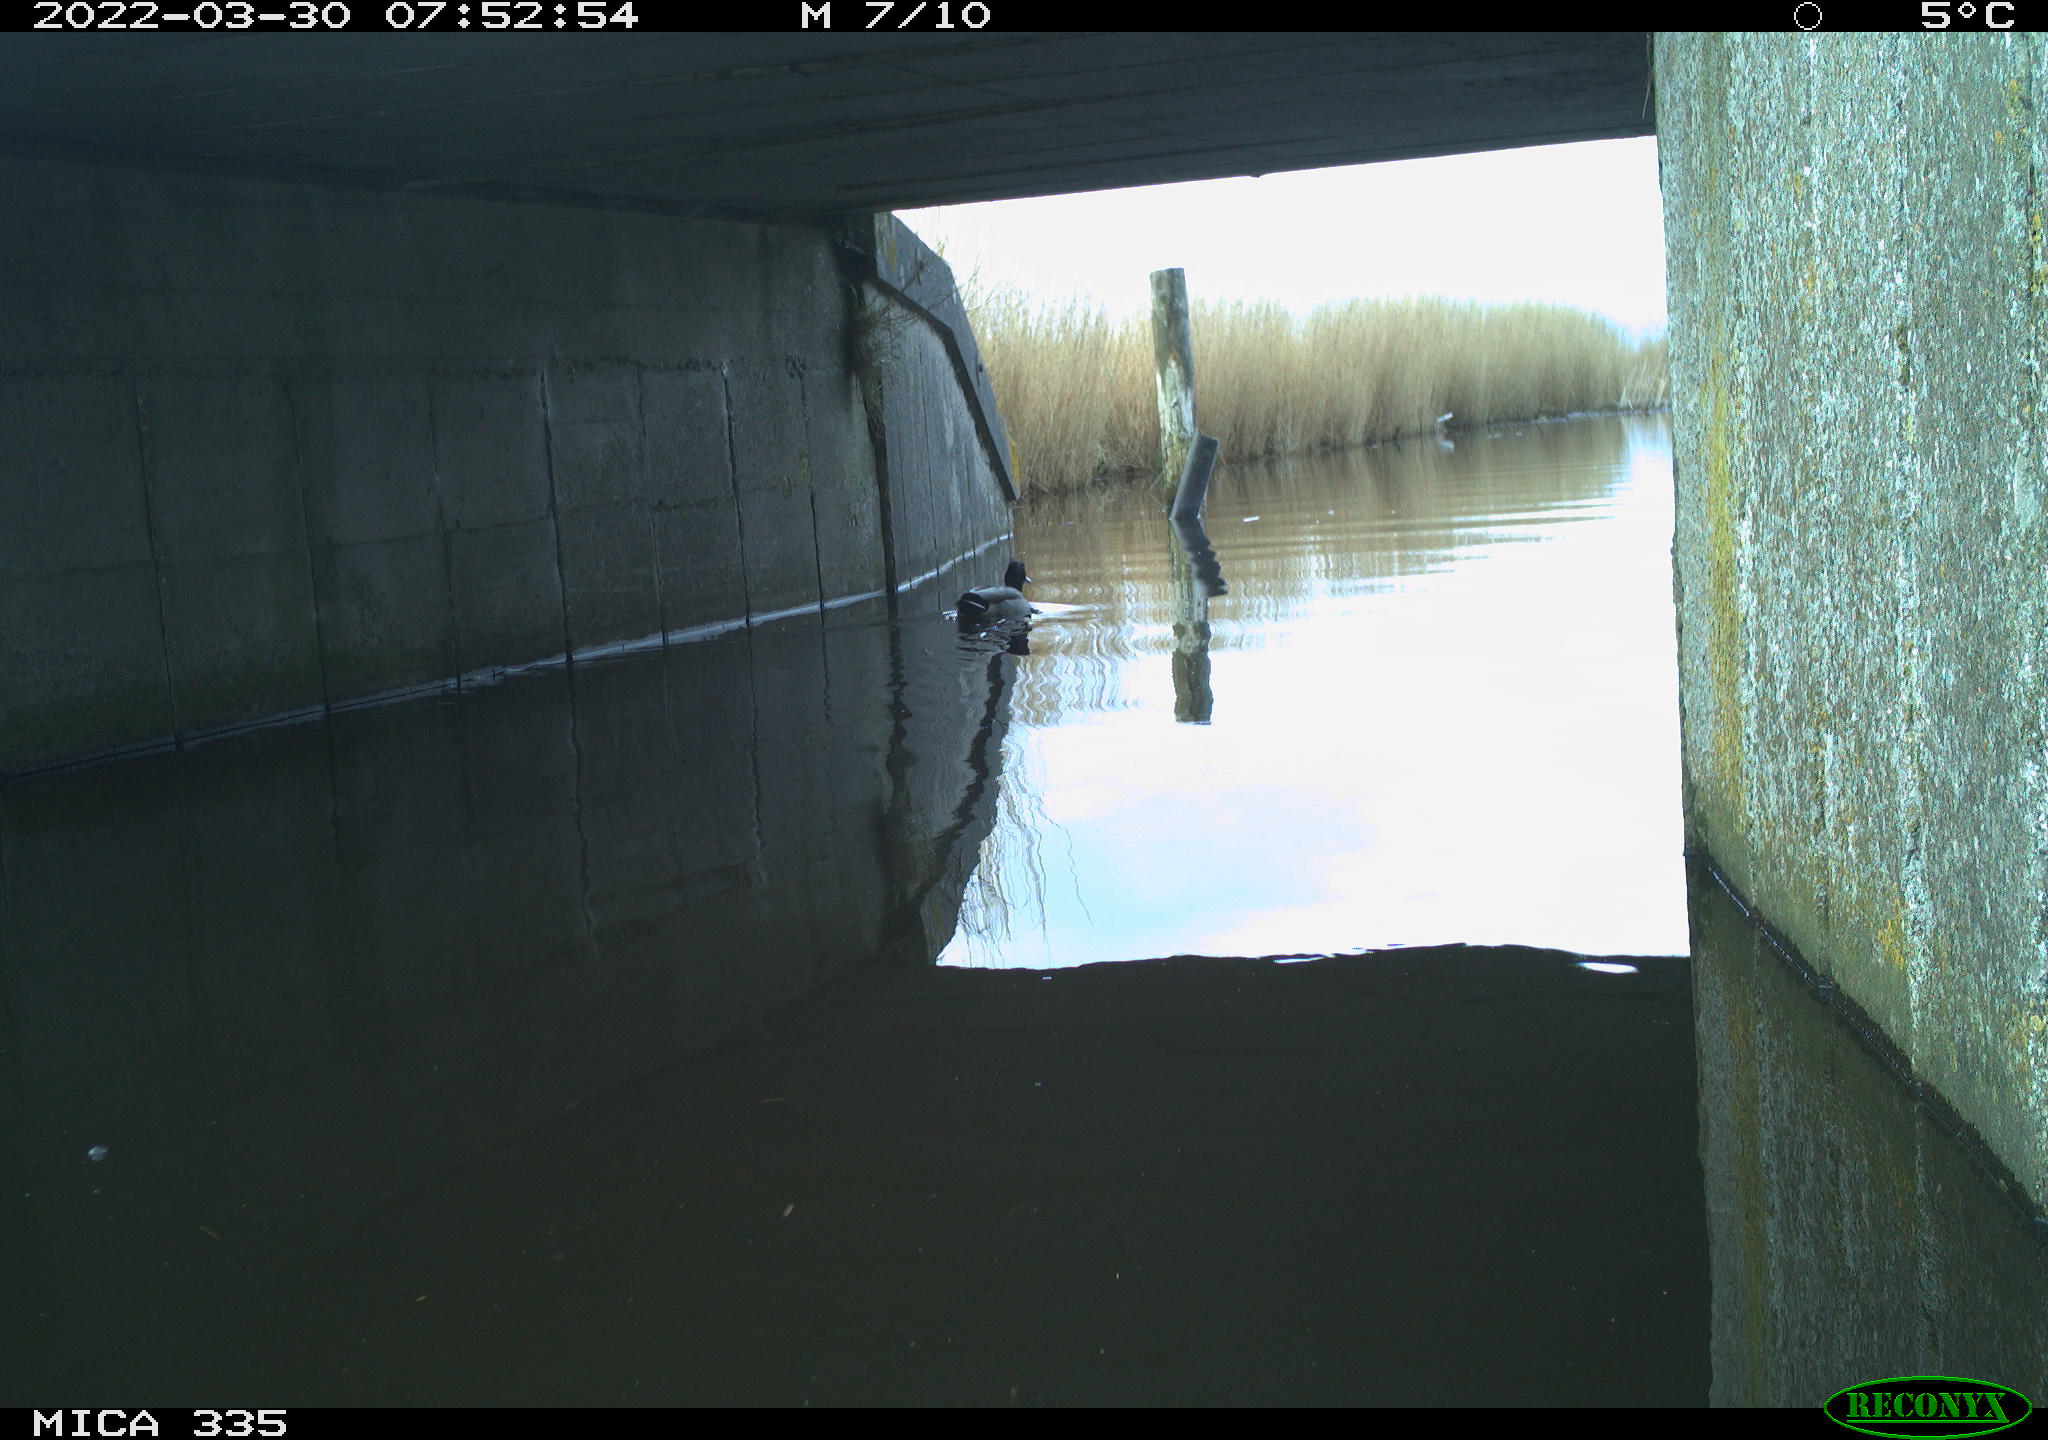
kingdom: Animalia
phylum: Chordata
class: Aves
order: Anseriformes
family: Anatidae
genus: Anas
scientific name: Anas platyrhynchos
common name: Mallard
